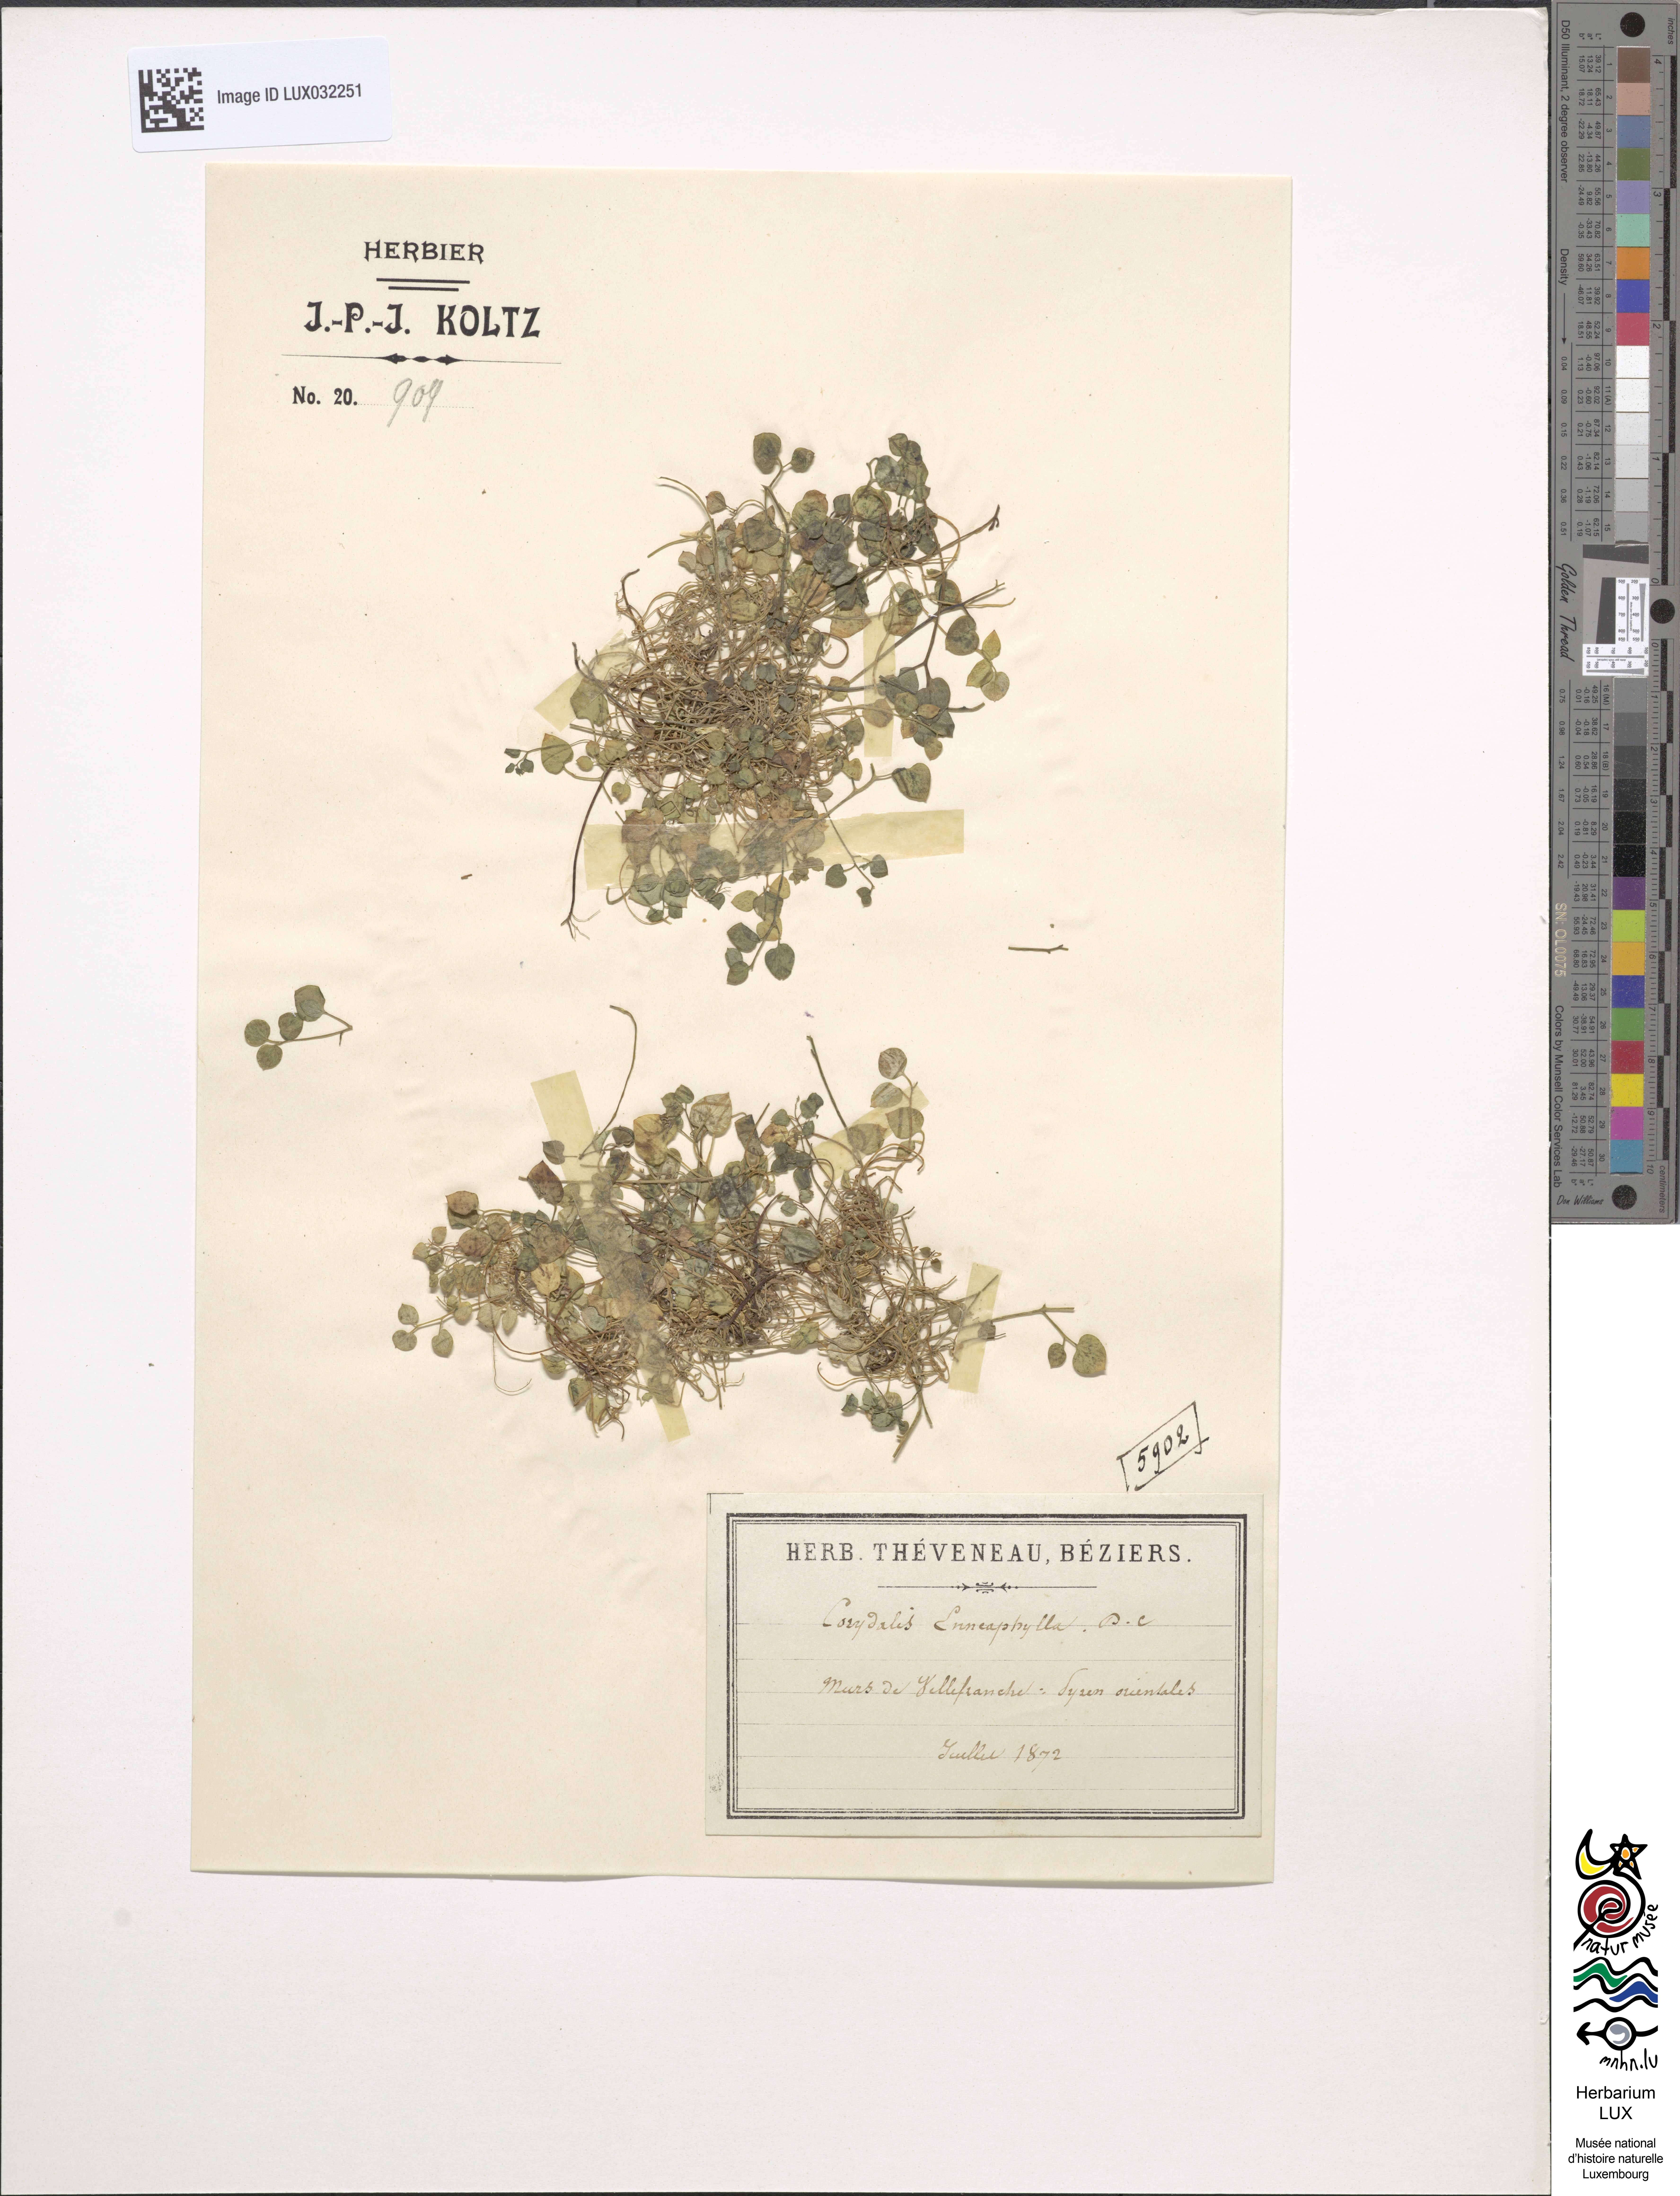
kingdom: Plantae
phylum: Tracheophyta
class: Magnoliopsida
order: Ranunculales
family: Papaveraceae
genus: Sarcocapnos
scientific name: Sarcocapnos enneaphylla
